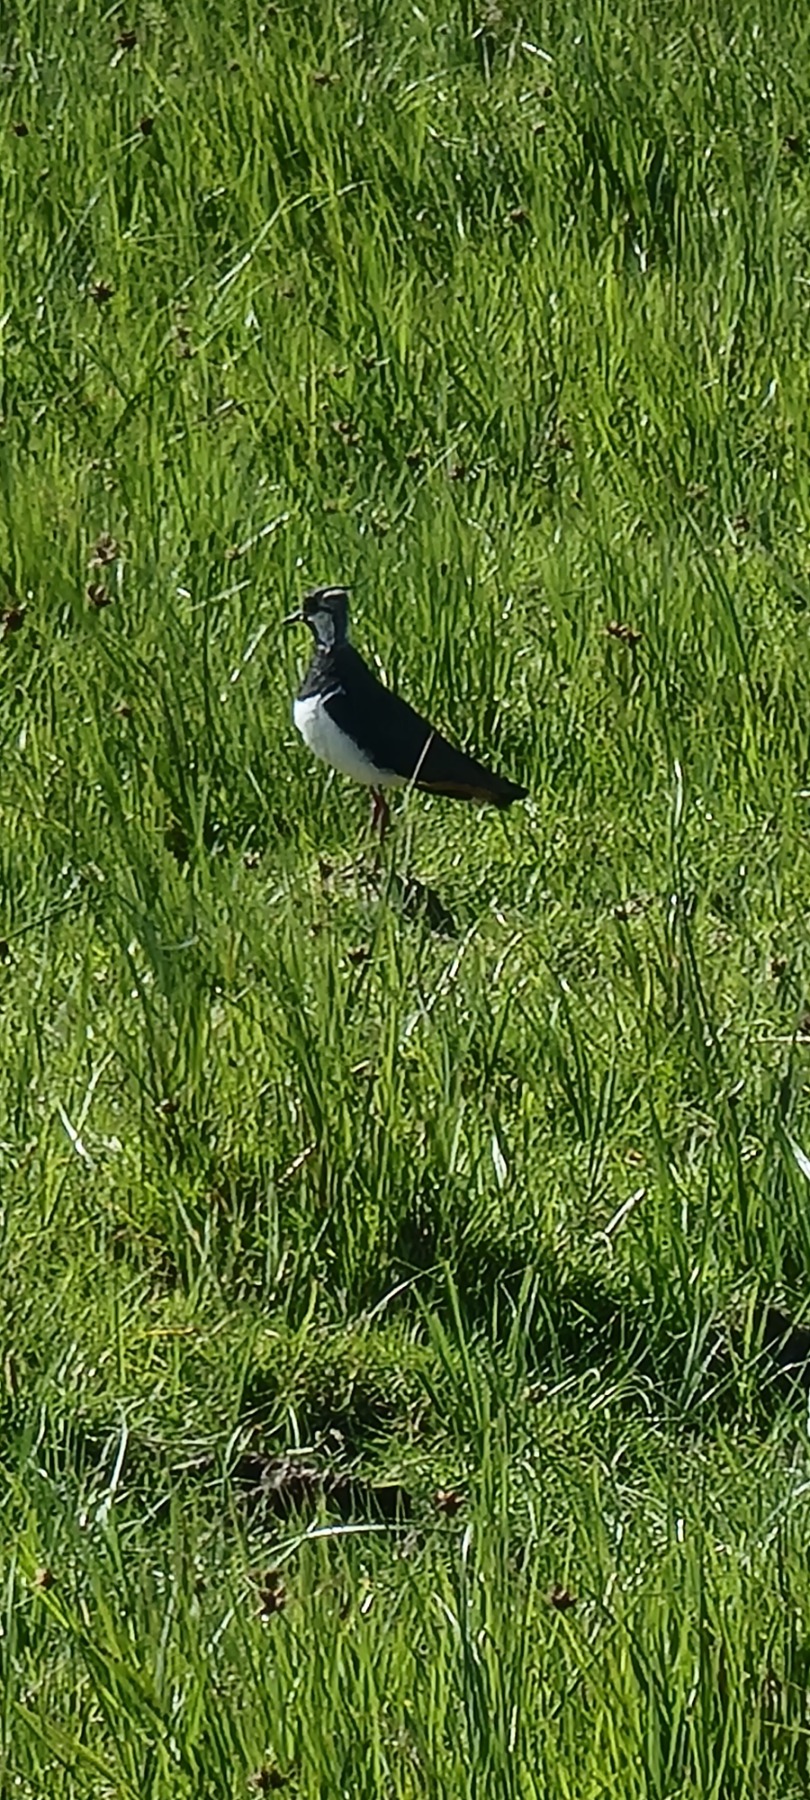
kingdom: Animalia
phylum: Chordata
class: Aves
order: Charadriiformes
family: Charadriidae
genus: Vanellus
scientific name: Vanellus vanellus
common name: Vibe
